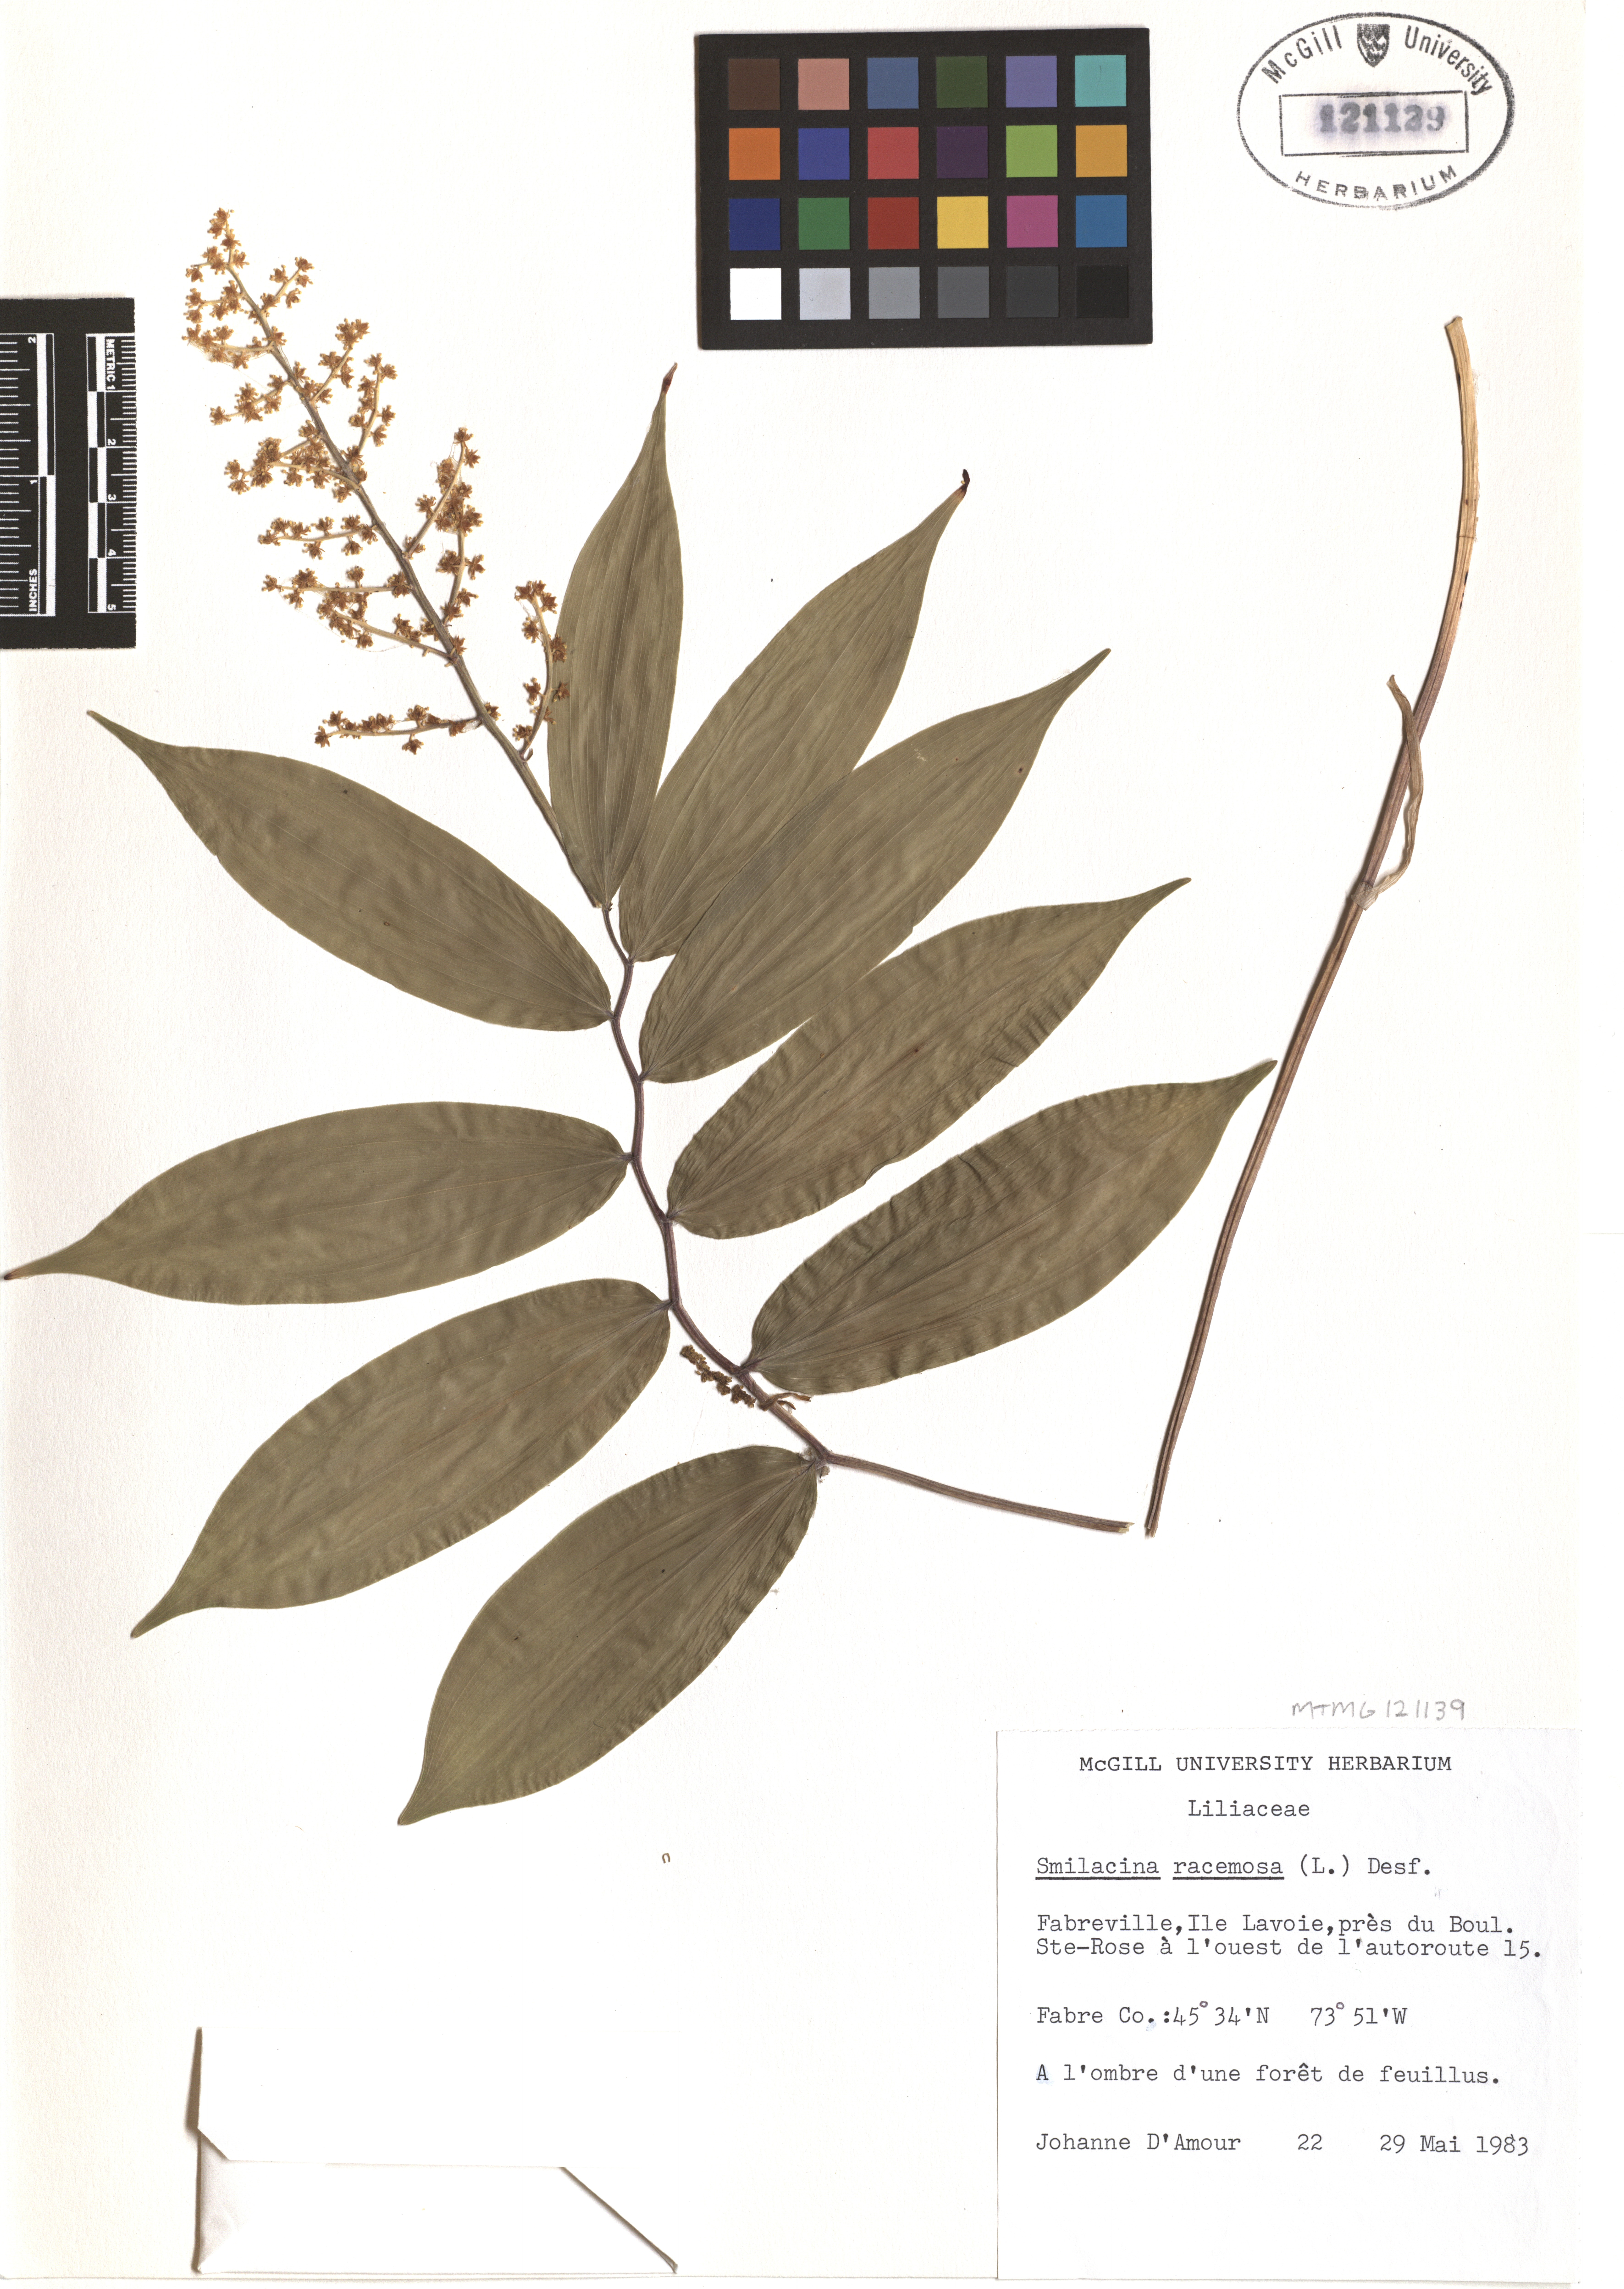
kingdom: Plantae
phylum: Tracheophyta
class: Liliopsida
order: Asparagales
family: Asparagaceae
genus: Maianthemum
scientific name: Maianthemum racemosum
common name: False spikenard
